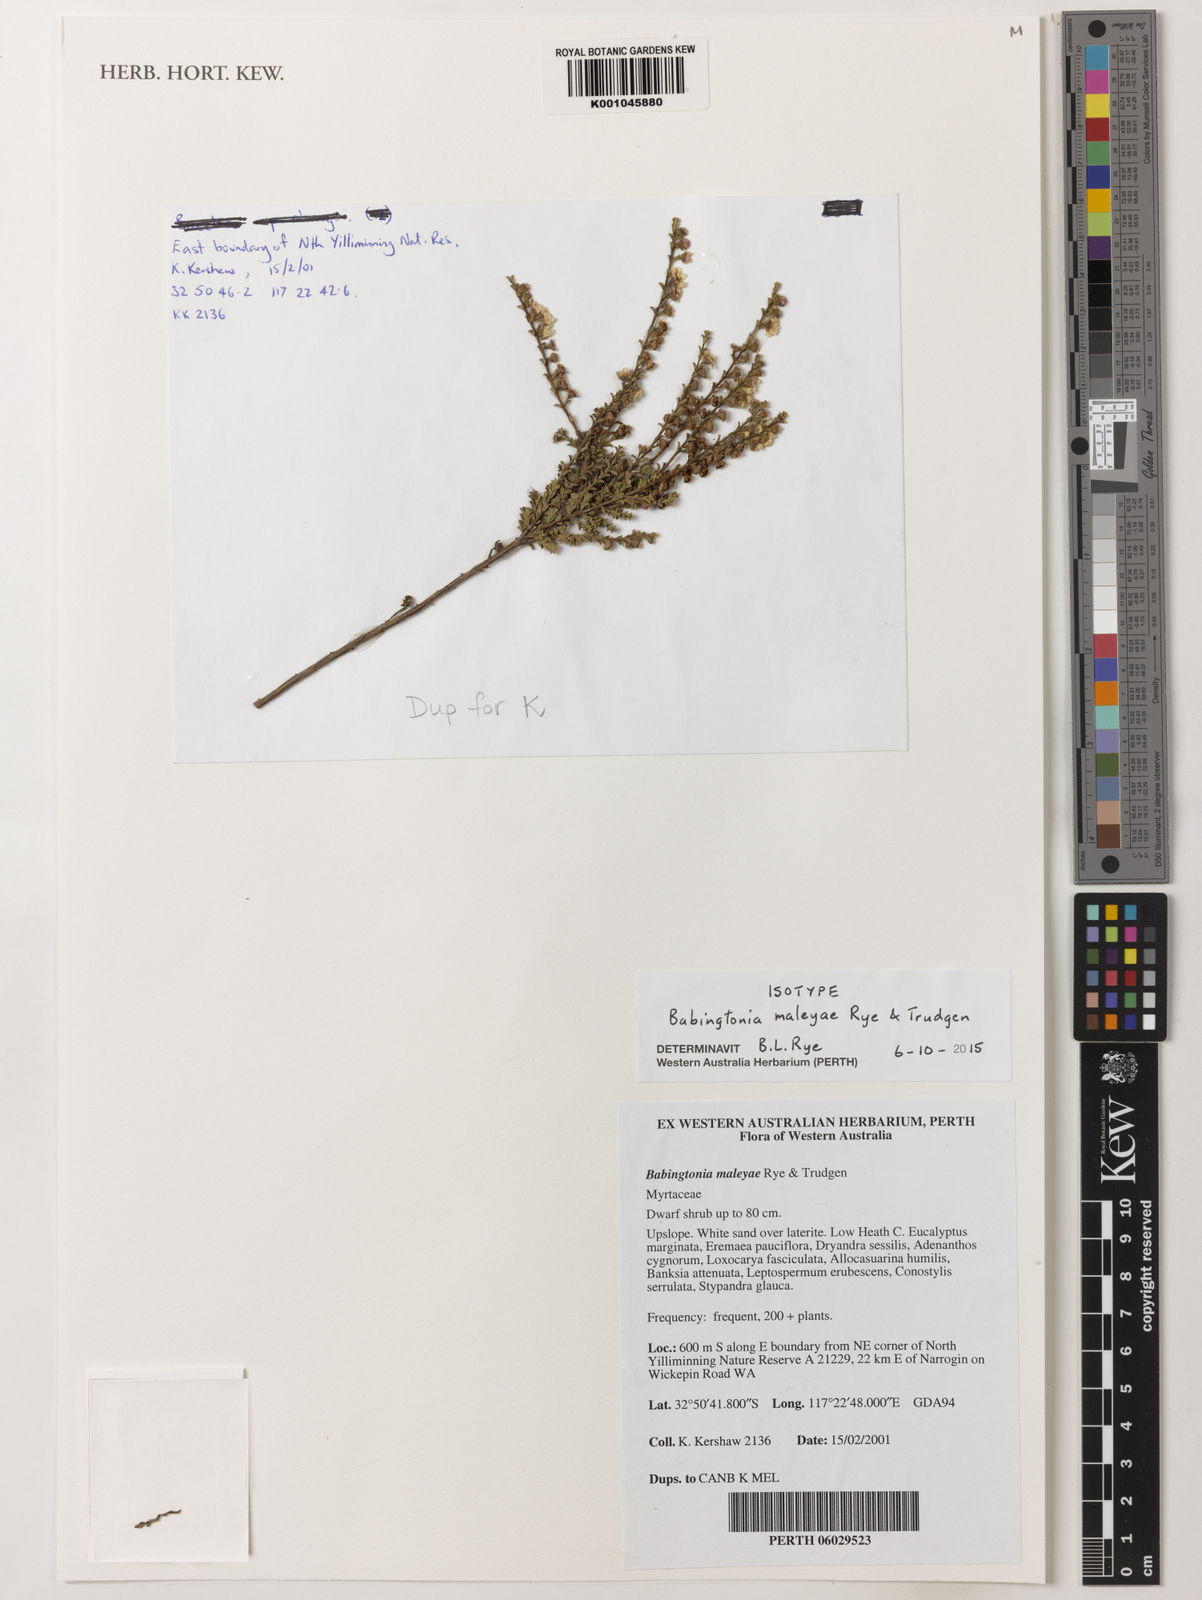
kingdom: Plantae
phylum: Tracheophyta
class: Magnoliopsida
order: Myrtales
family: Myrtaceae
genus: Babingtonia
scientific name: Babingtonia
